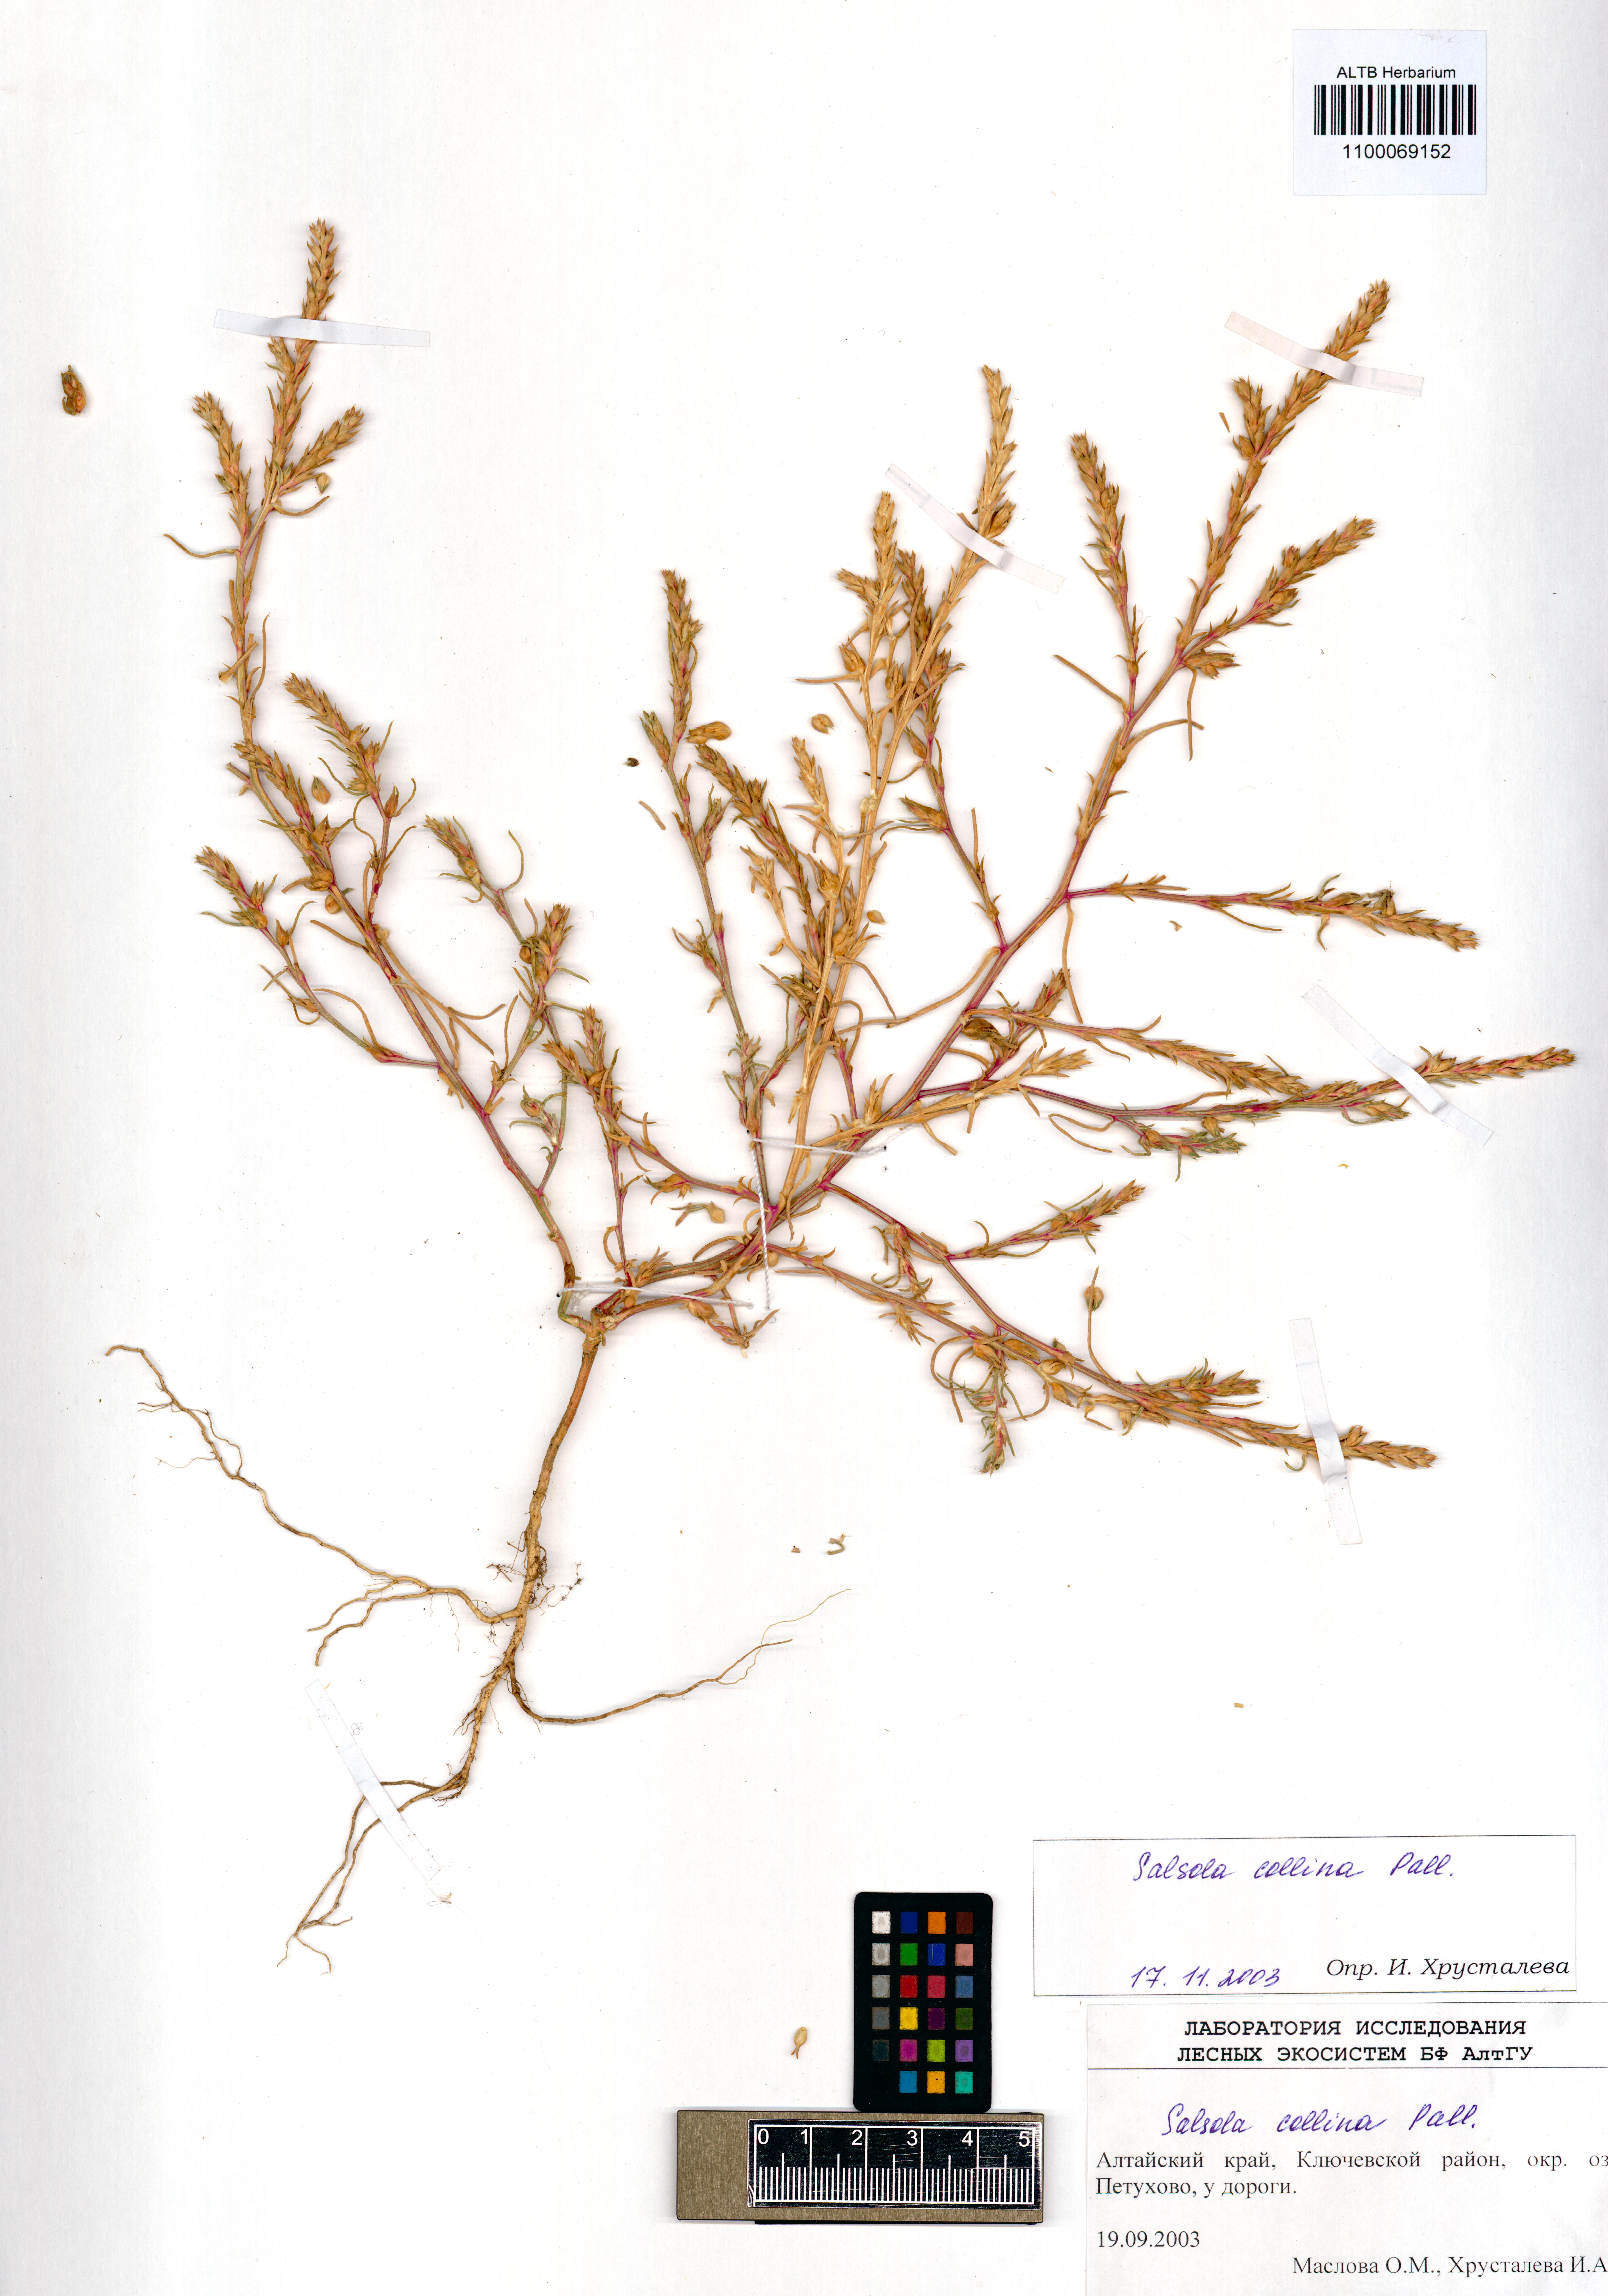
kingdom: Plantae
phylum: Tracheophyta
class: Magnoliopsida
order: Caryophyllales
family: Amaranthaceae
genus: Salsola
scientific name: Salsola collina
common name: Tumbleweed
